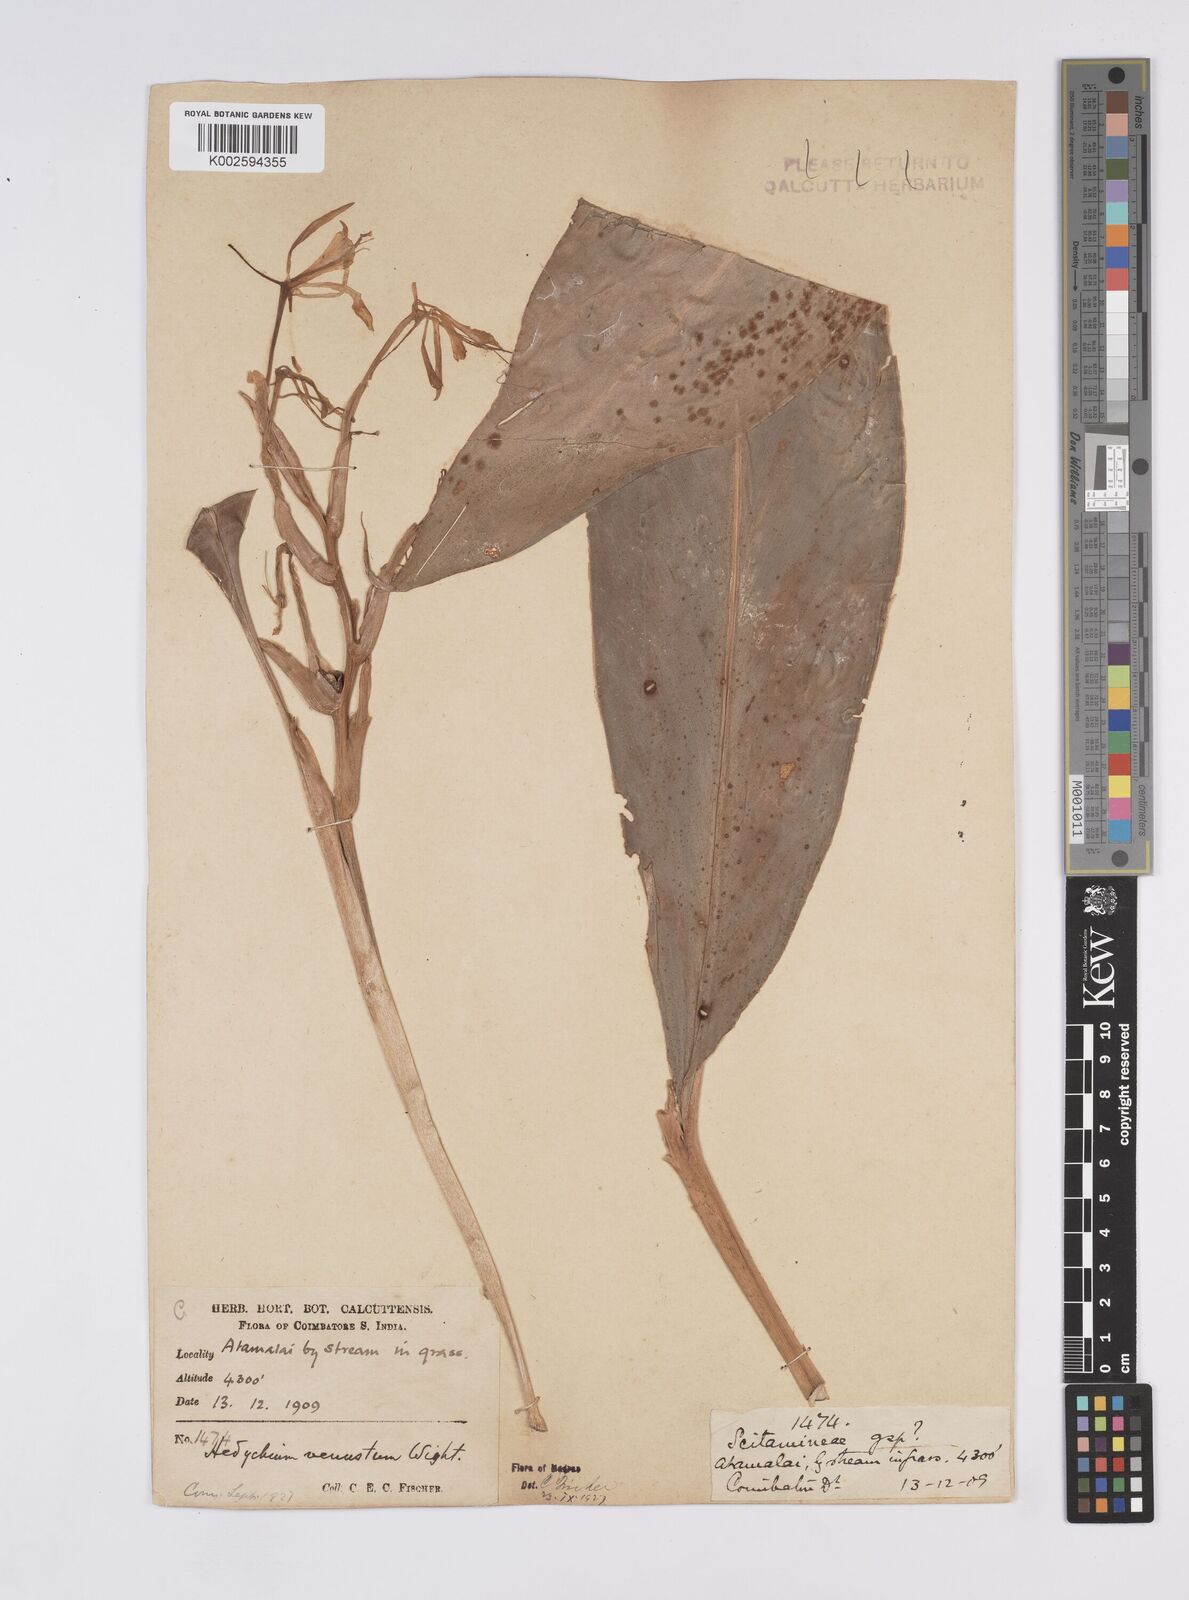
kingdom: Plantae
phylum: Tracheophyta
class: Liliopsida
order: Zingiberales
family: Zingiberaceae
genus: Hedychium
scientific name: Hedychium venustum
